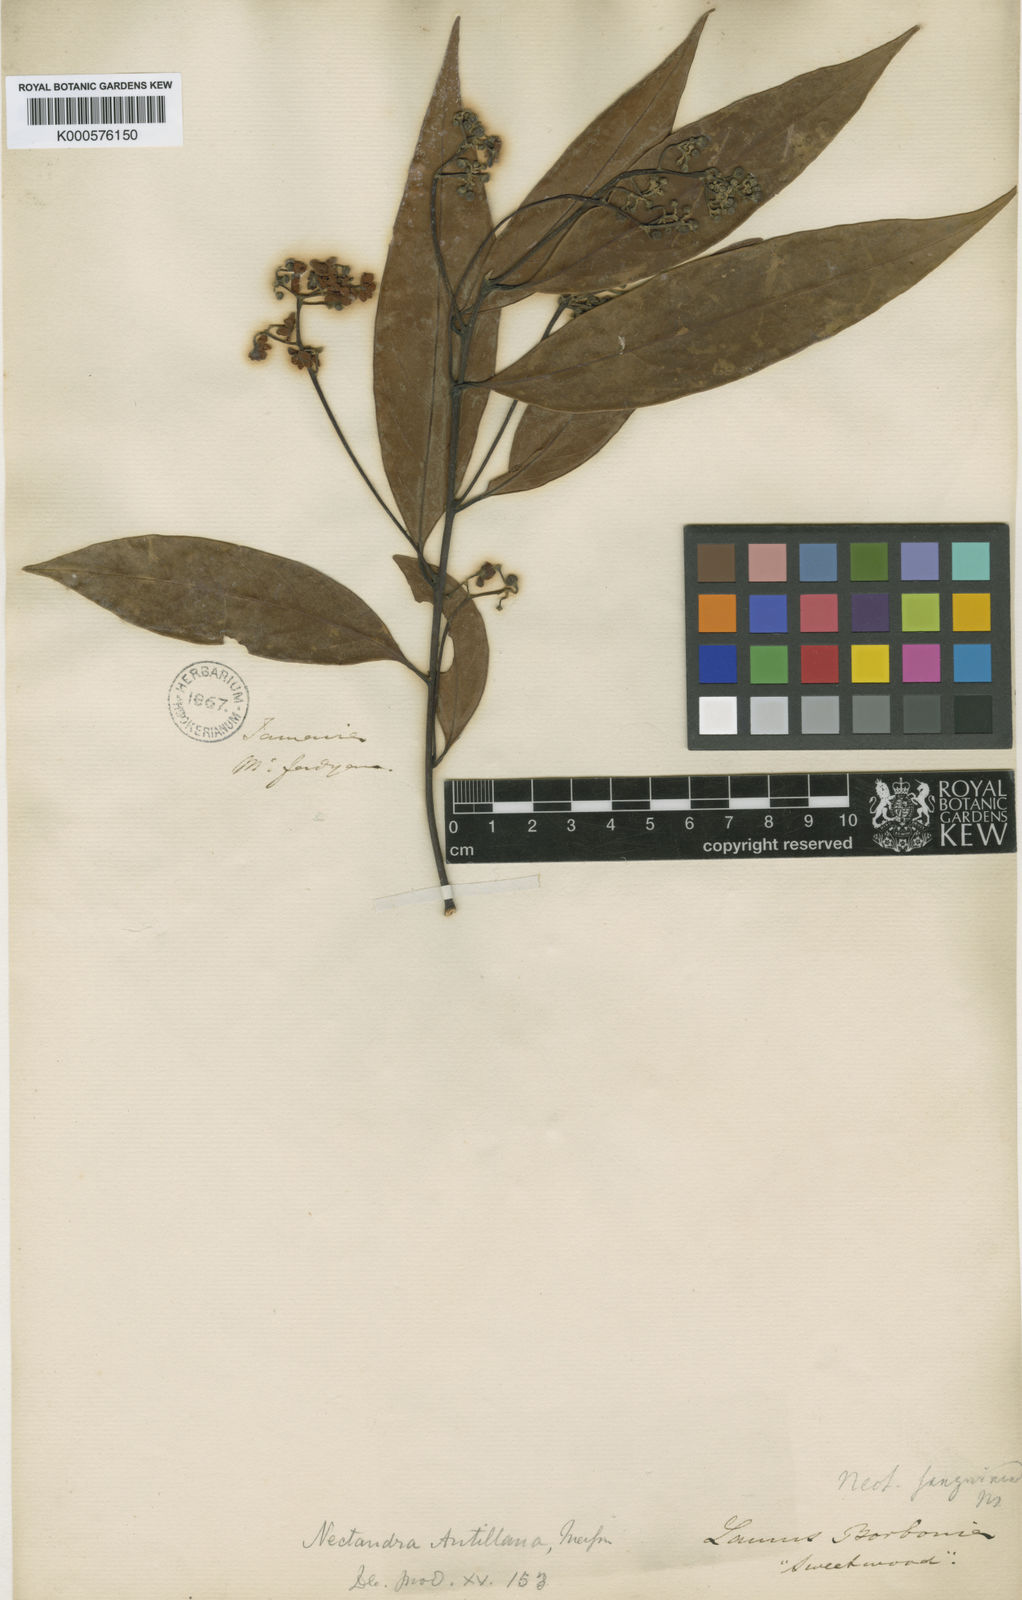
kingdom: Plantae
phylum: Tracheophyta
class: Magnoliopsida
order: Laurales
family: Lauraceae
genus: Nectandra
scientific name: Nectandra globosa
